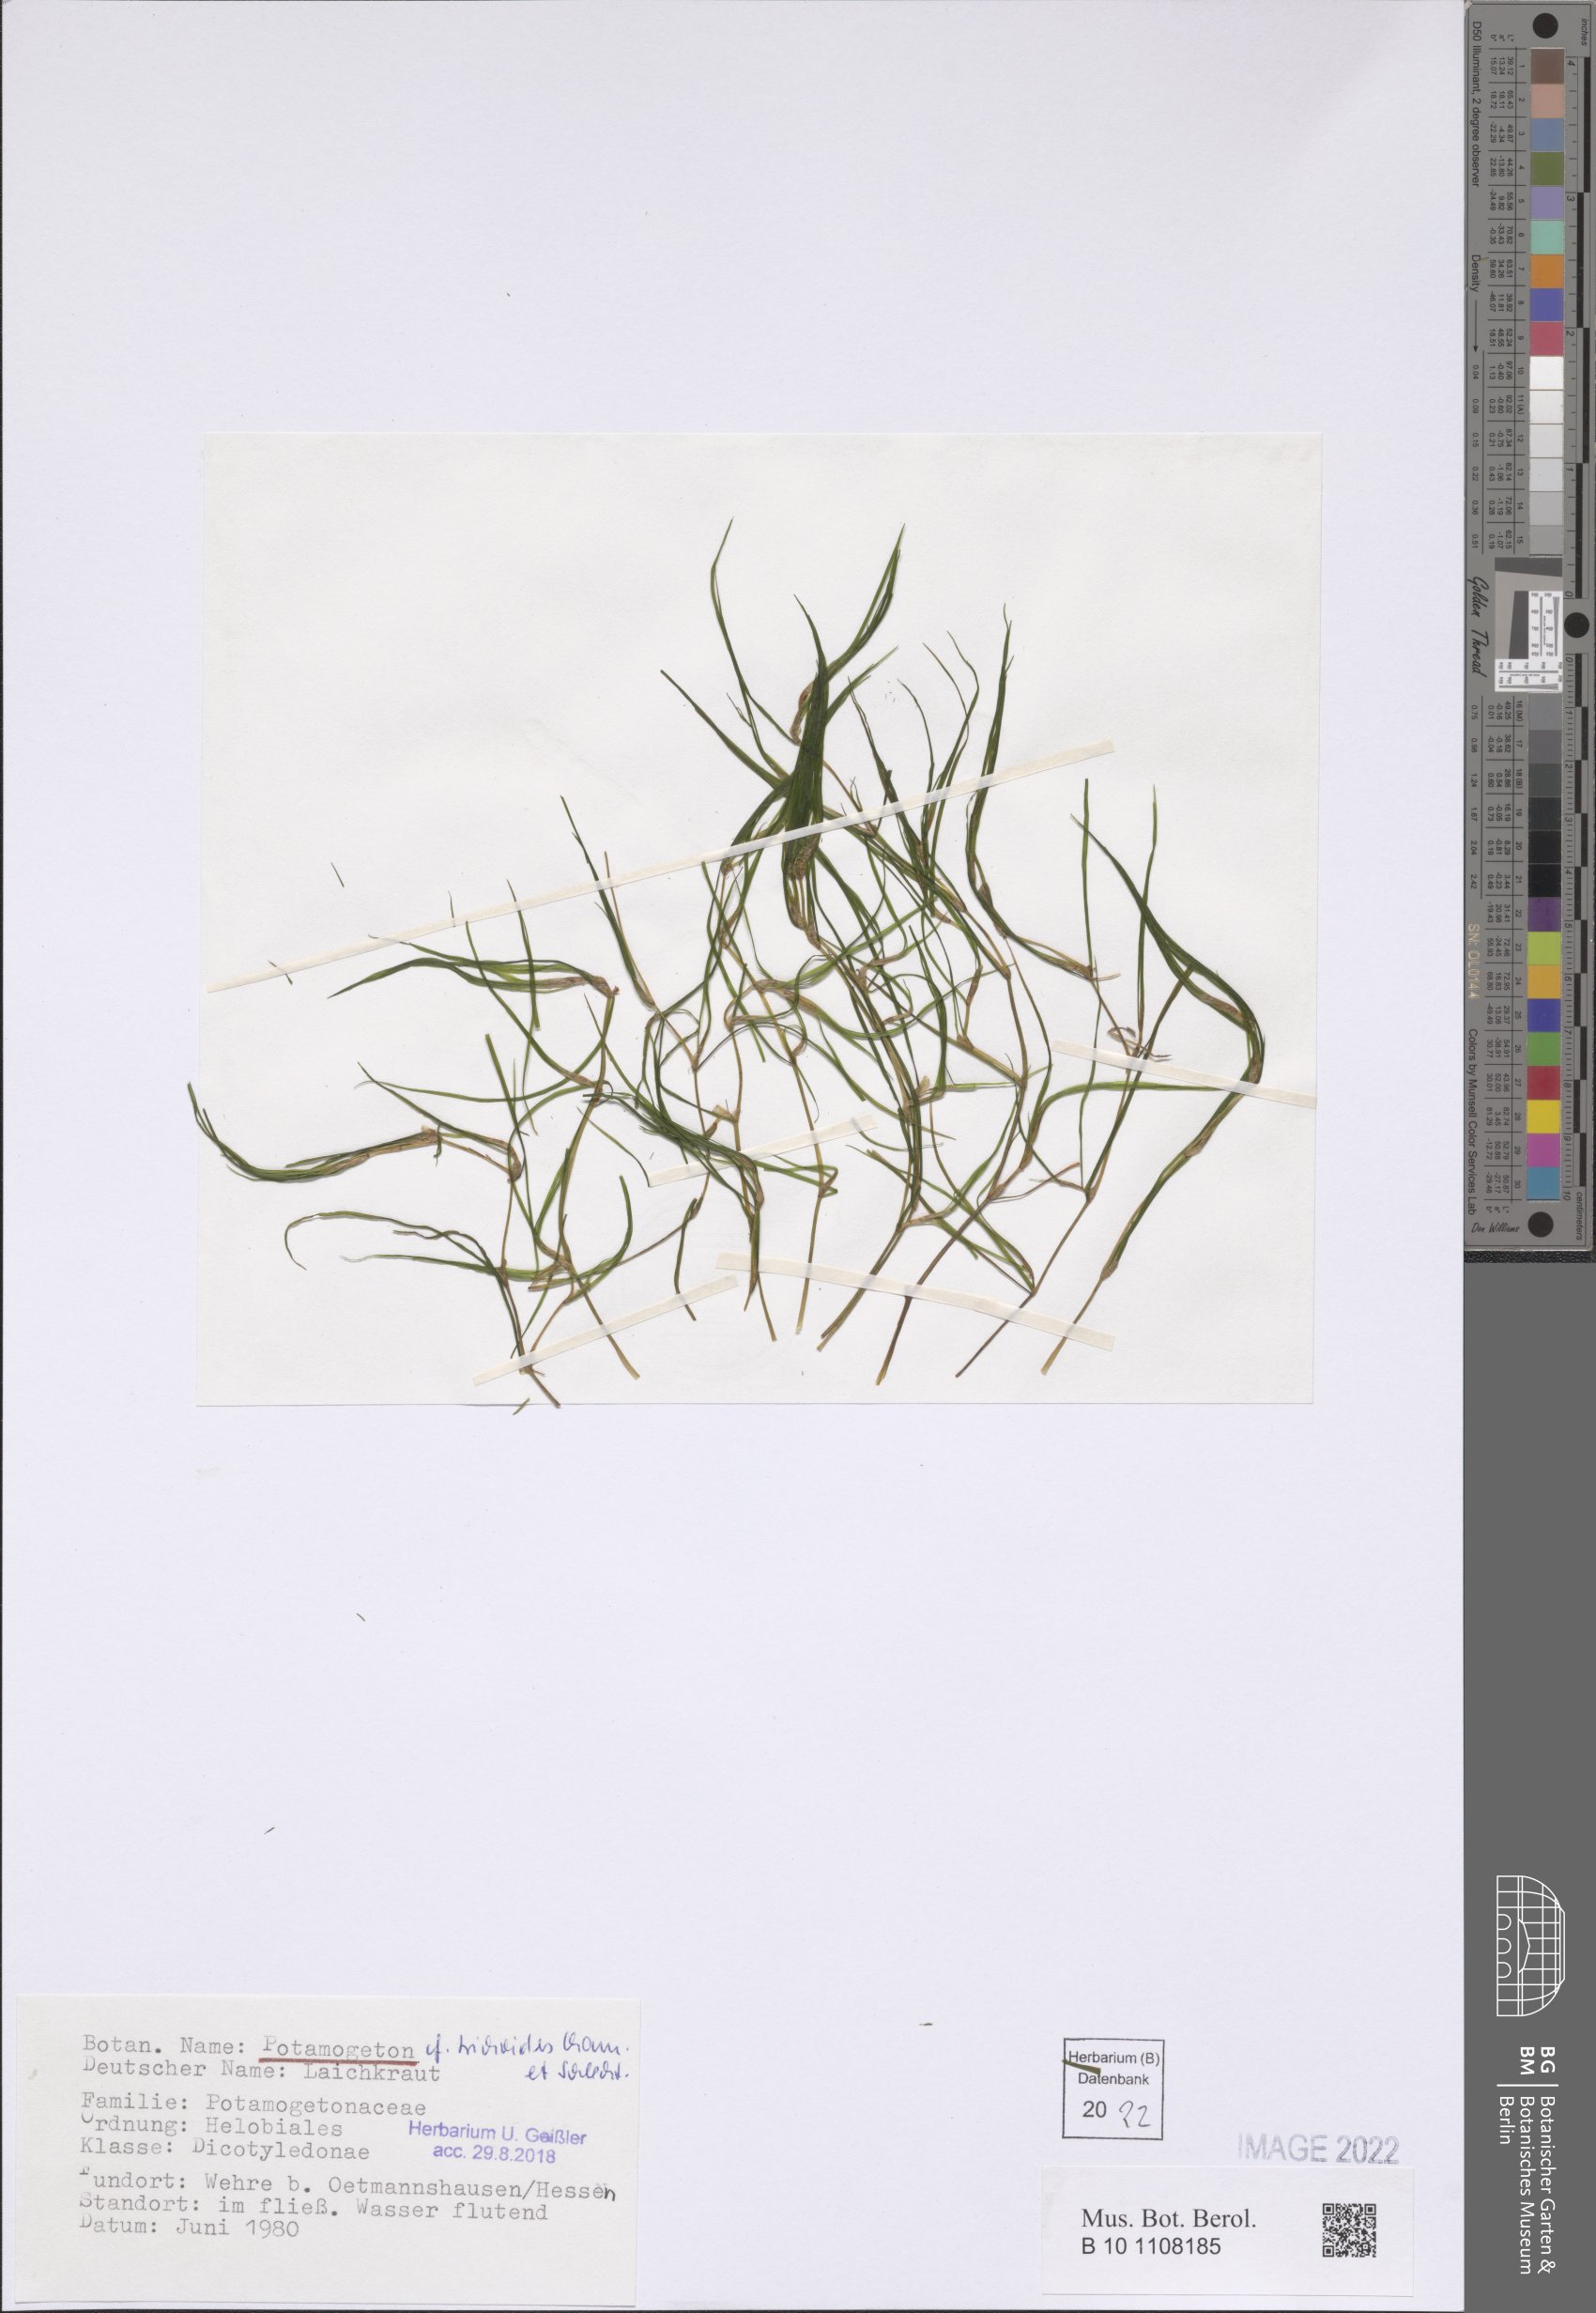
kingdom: Plantae
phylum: Tracheophyta
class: Liliopsida
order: Alismatales
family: Potamogetonaceae
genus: Potamogeton
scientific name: Potamogeton trichoides
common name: Hairlike pondweed
